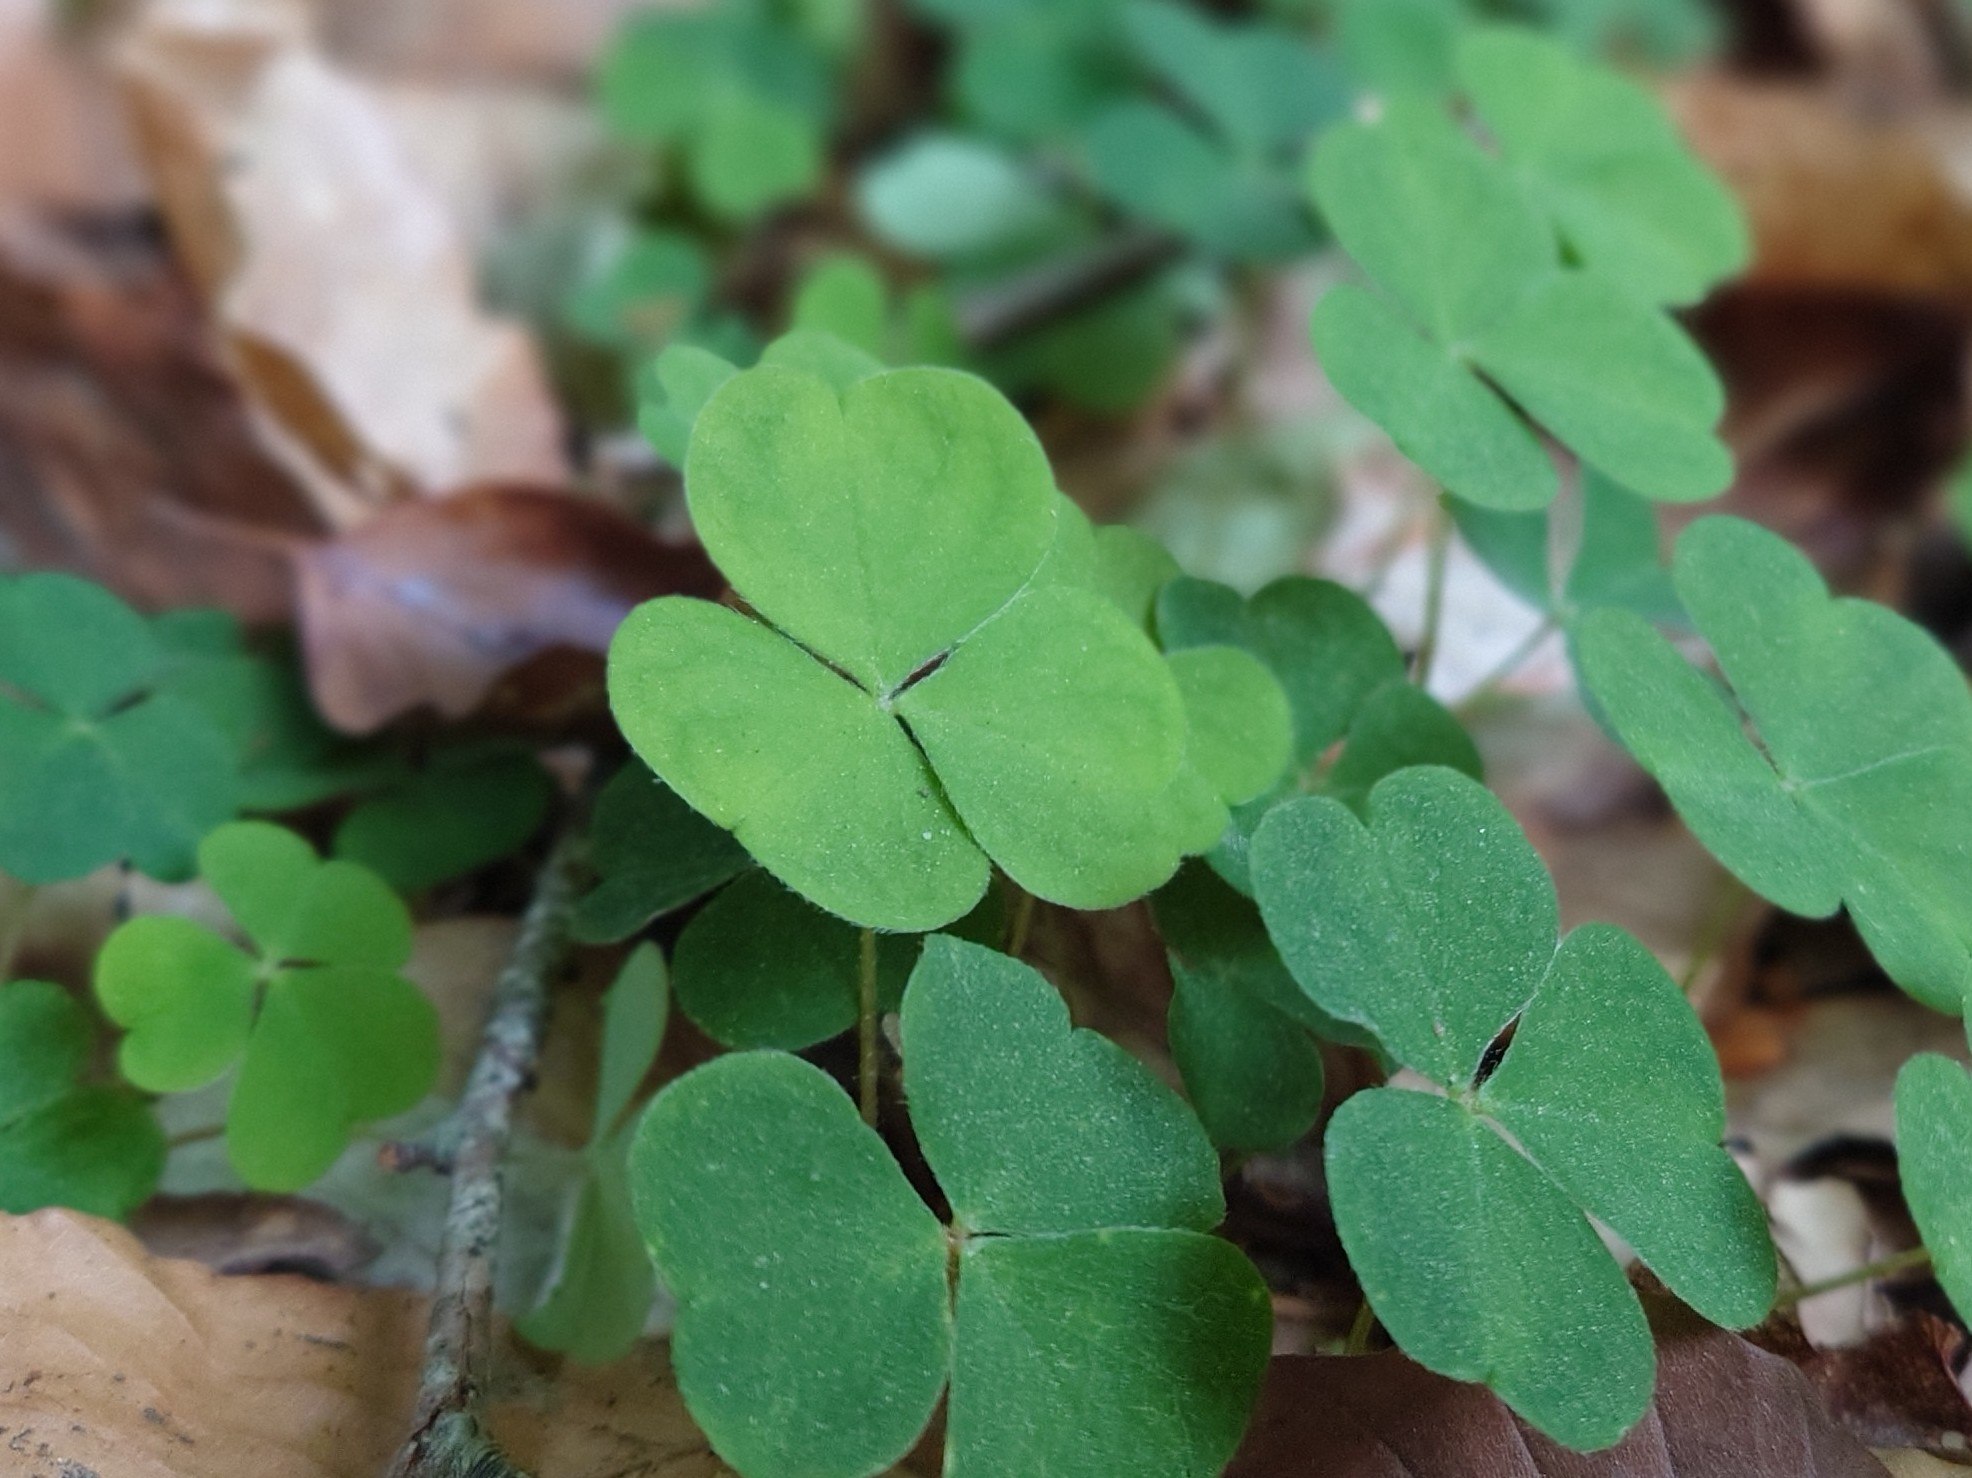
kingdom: Plantae
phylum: Tracheophyta
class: Magnoliopsida
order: Oxalidales
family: Oxalidaceae
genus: Oxalis
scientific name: Oxalis acetosella
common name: Skovsyre
